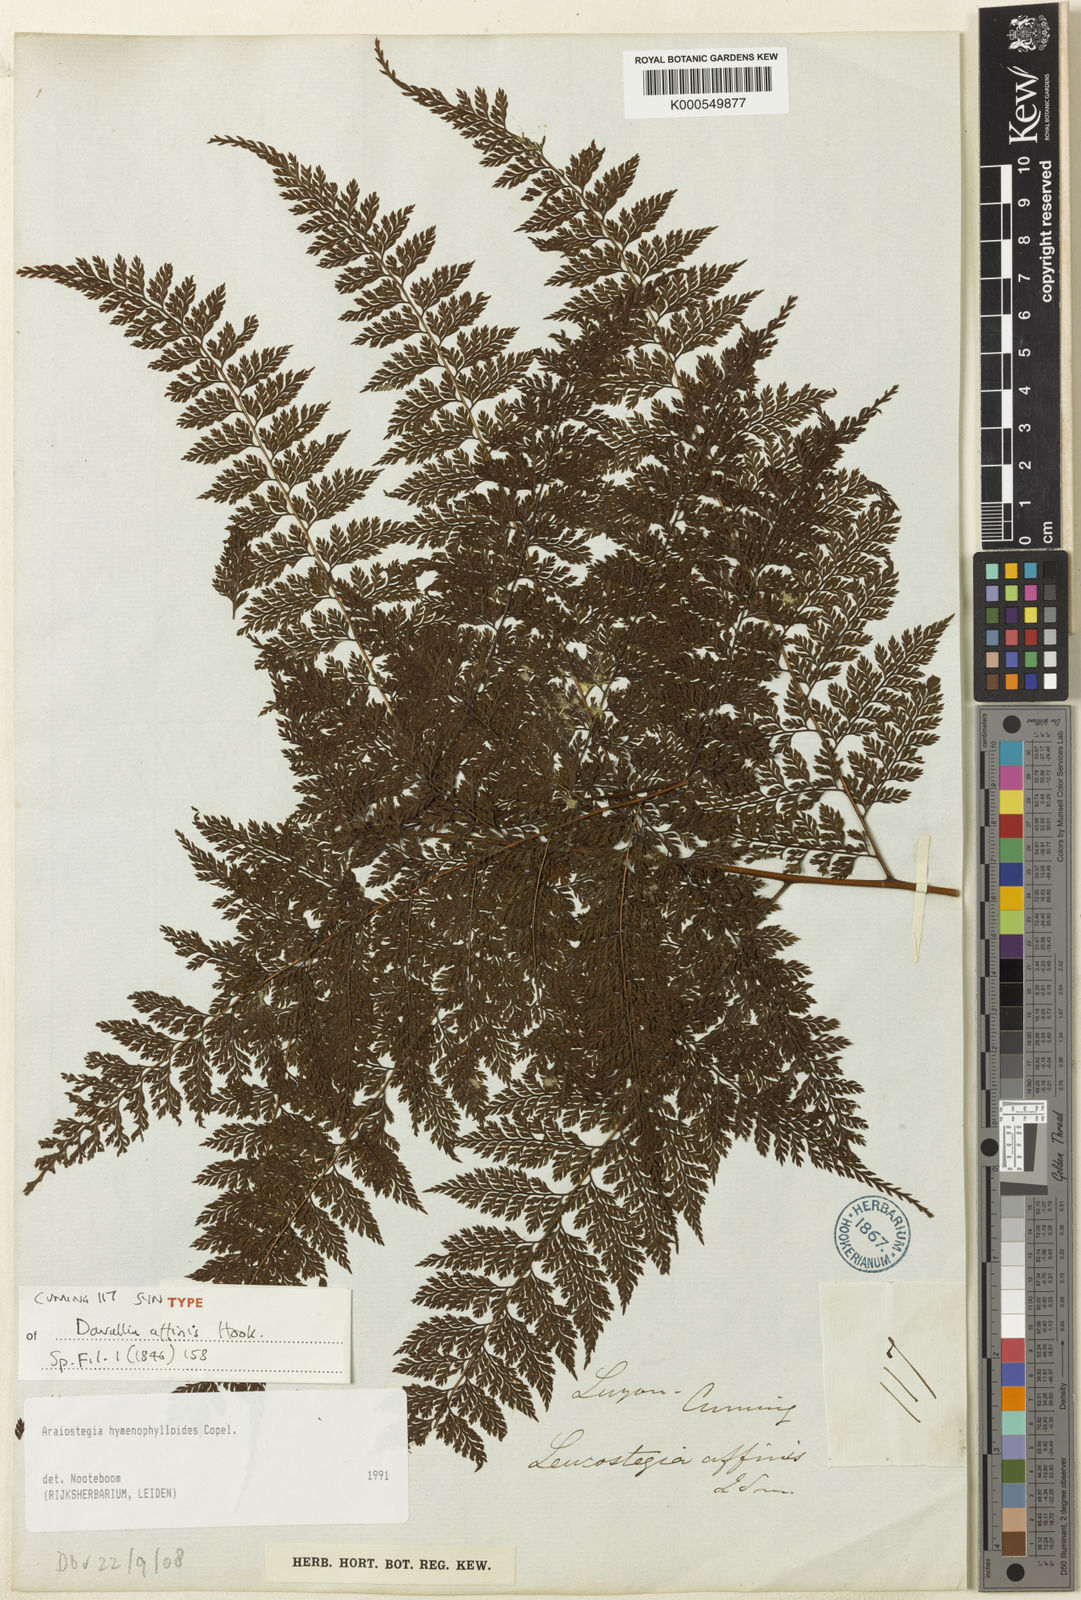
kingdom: Plantae
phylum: Tracheophyta
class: Polypodiopsida
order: Polypodiales
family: Davalliaceae
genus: Davallodes
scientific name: Davallodes hymenophylloides
